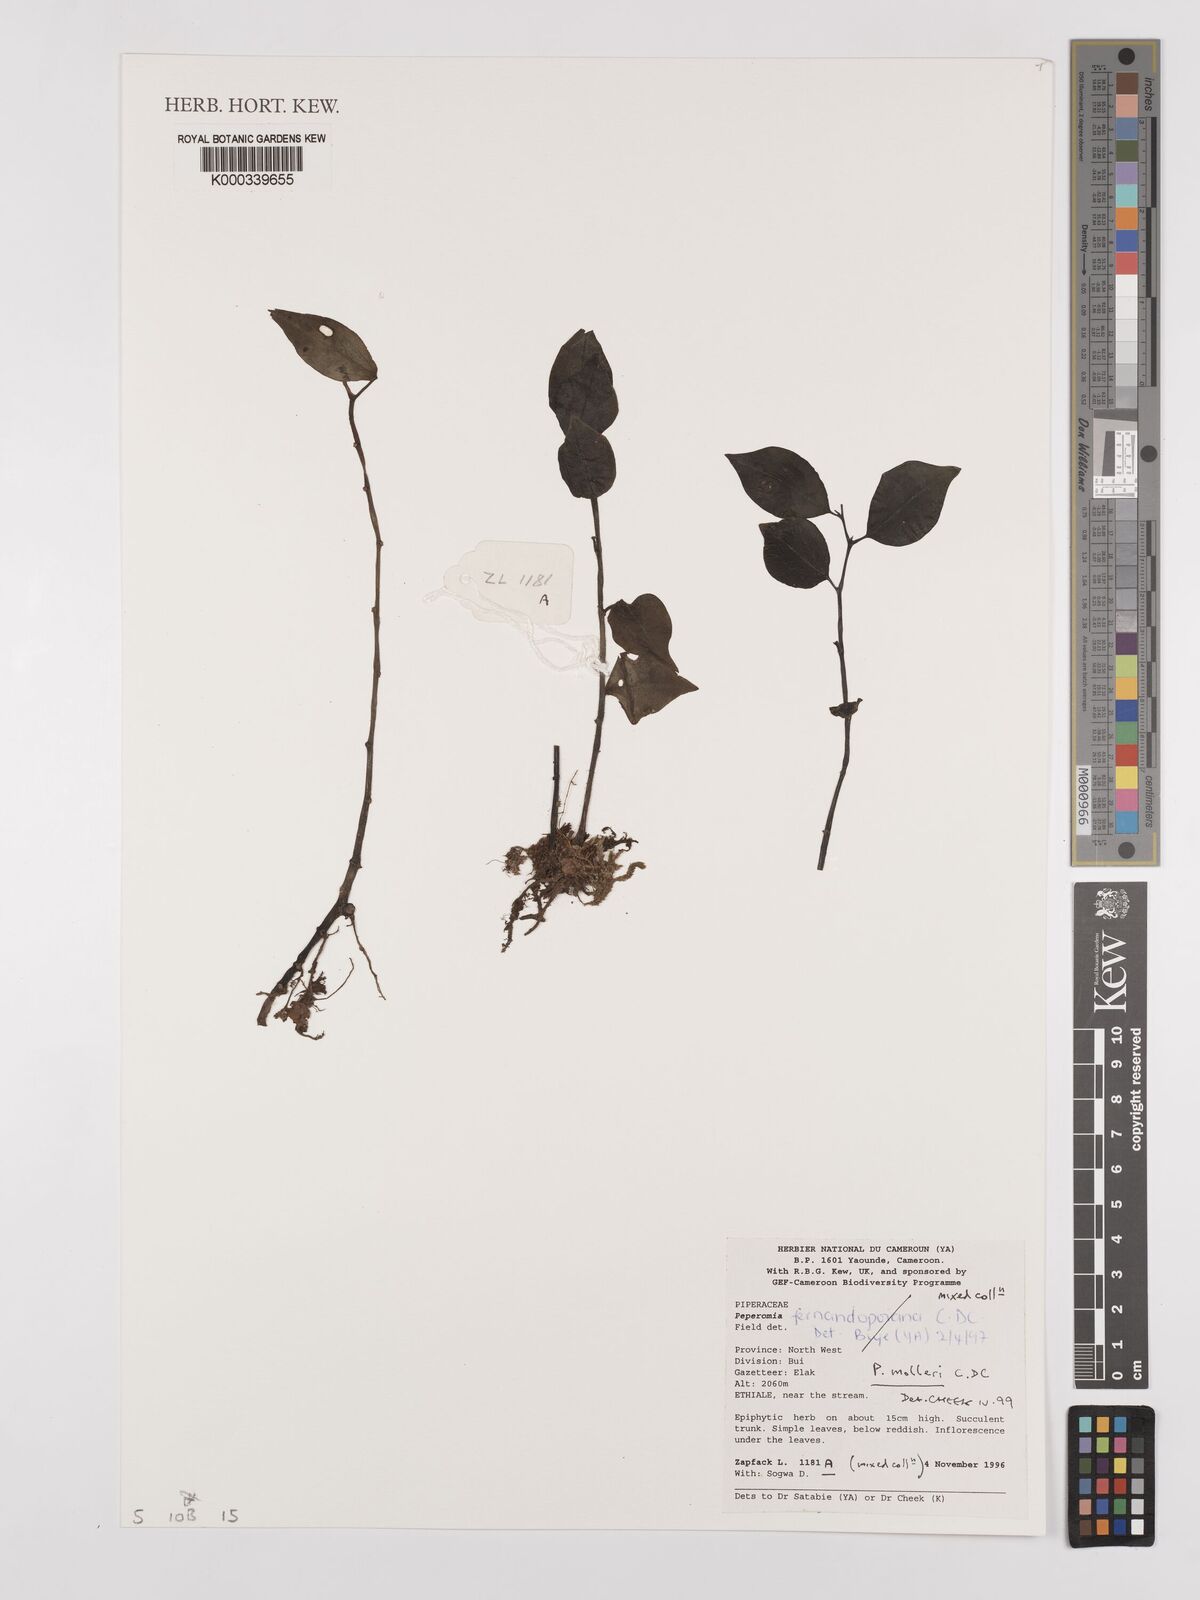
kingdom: Plantae
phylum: Tracheophyta
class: Magnoliopsida
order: Piperales
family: Piperaceae
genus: Peperomia
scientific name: Peperomia molleri
